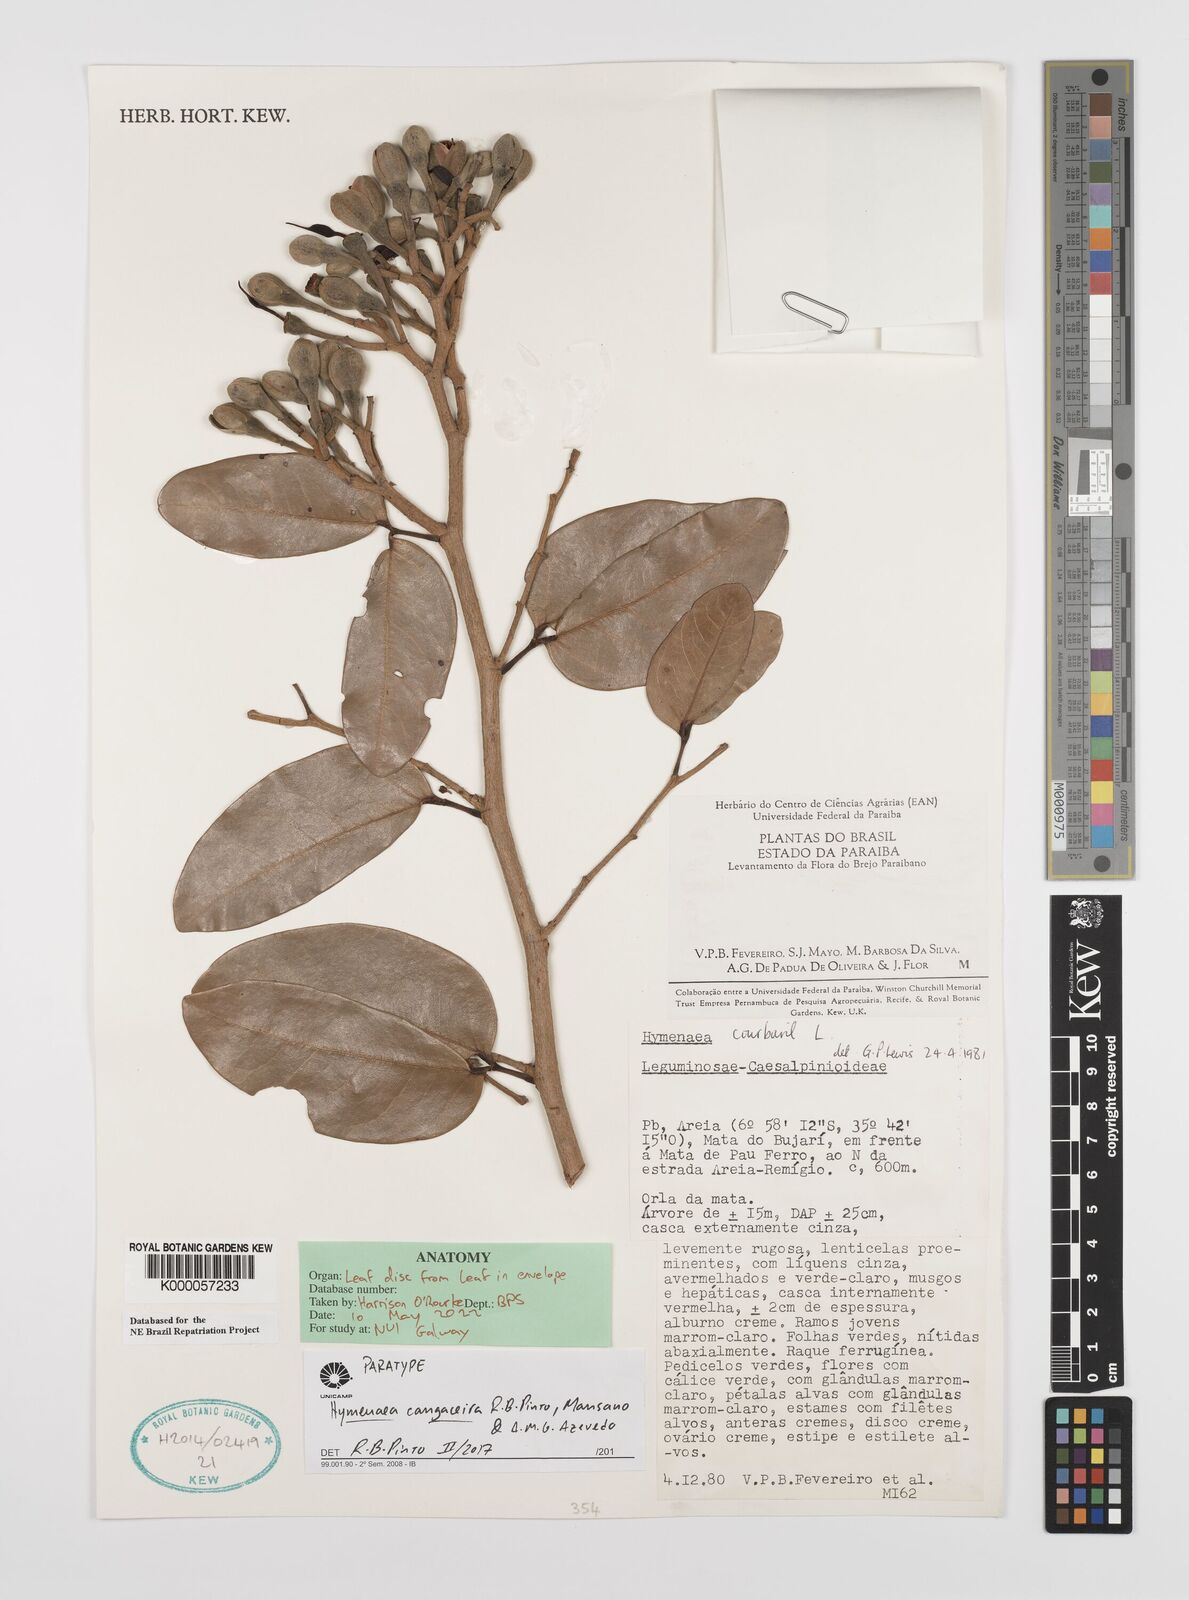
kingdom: Plantae
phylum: Tracheophyta
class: Magnoliopsida
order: Fabales
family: Fabaceae
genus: Hymenaea
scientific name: Hymenaea courbaril
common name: Brazilian copal
